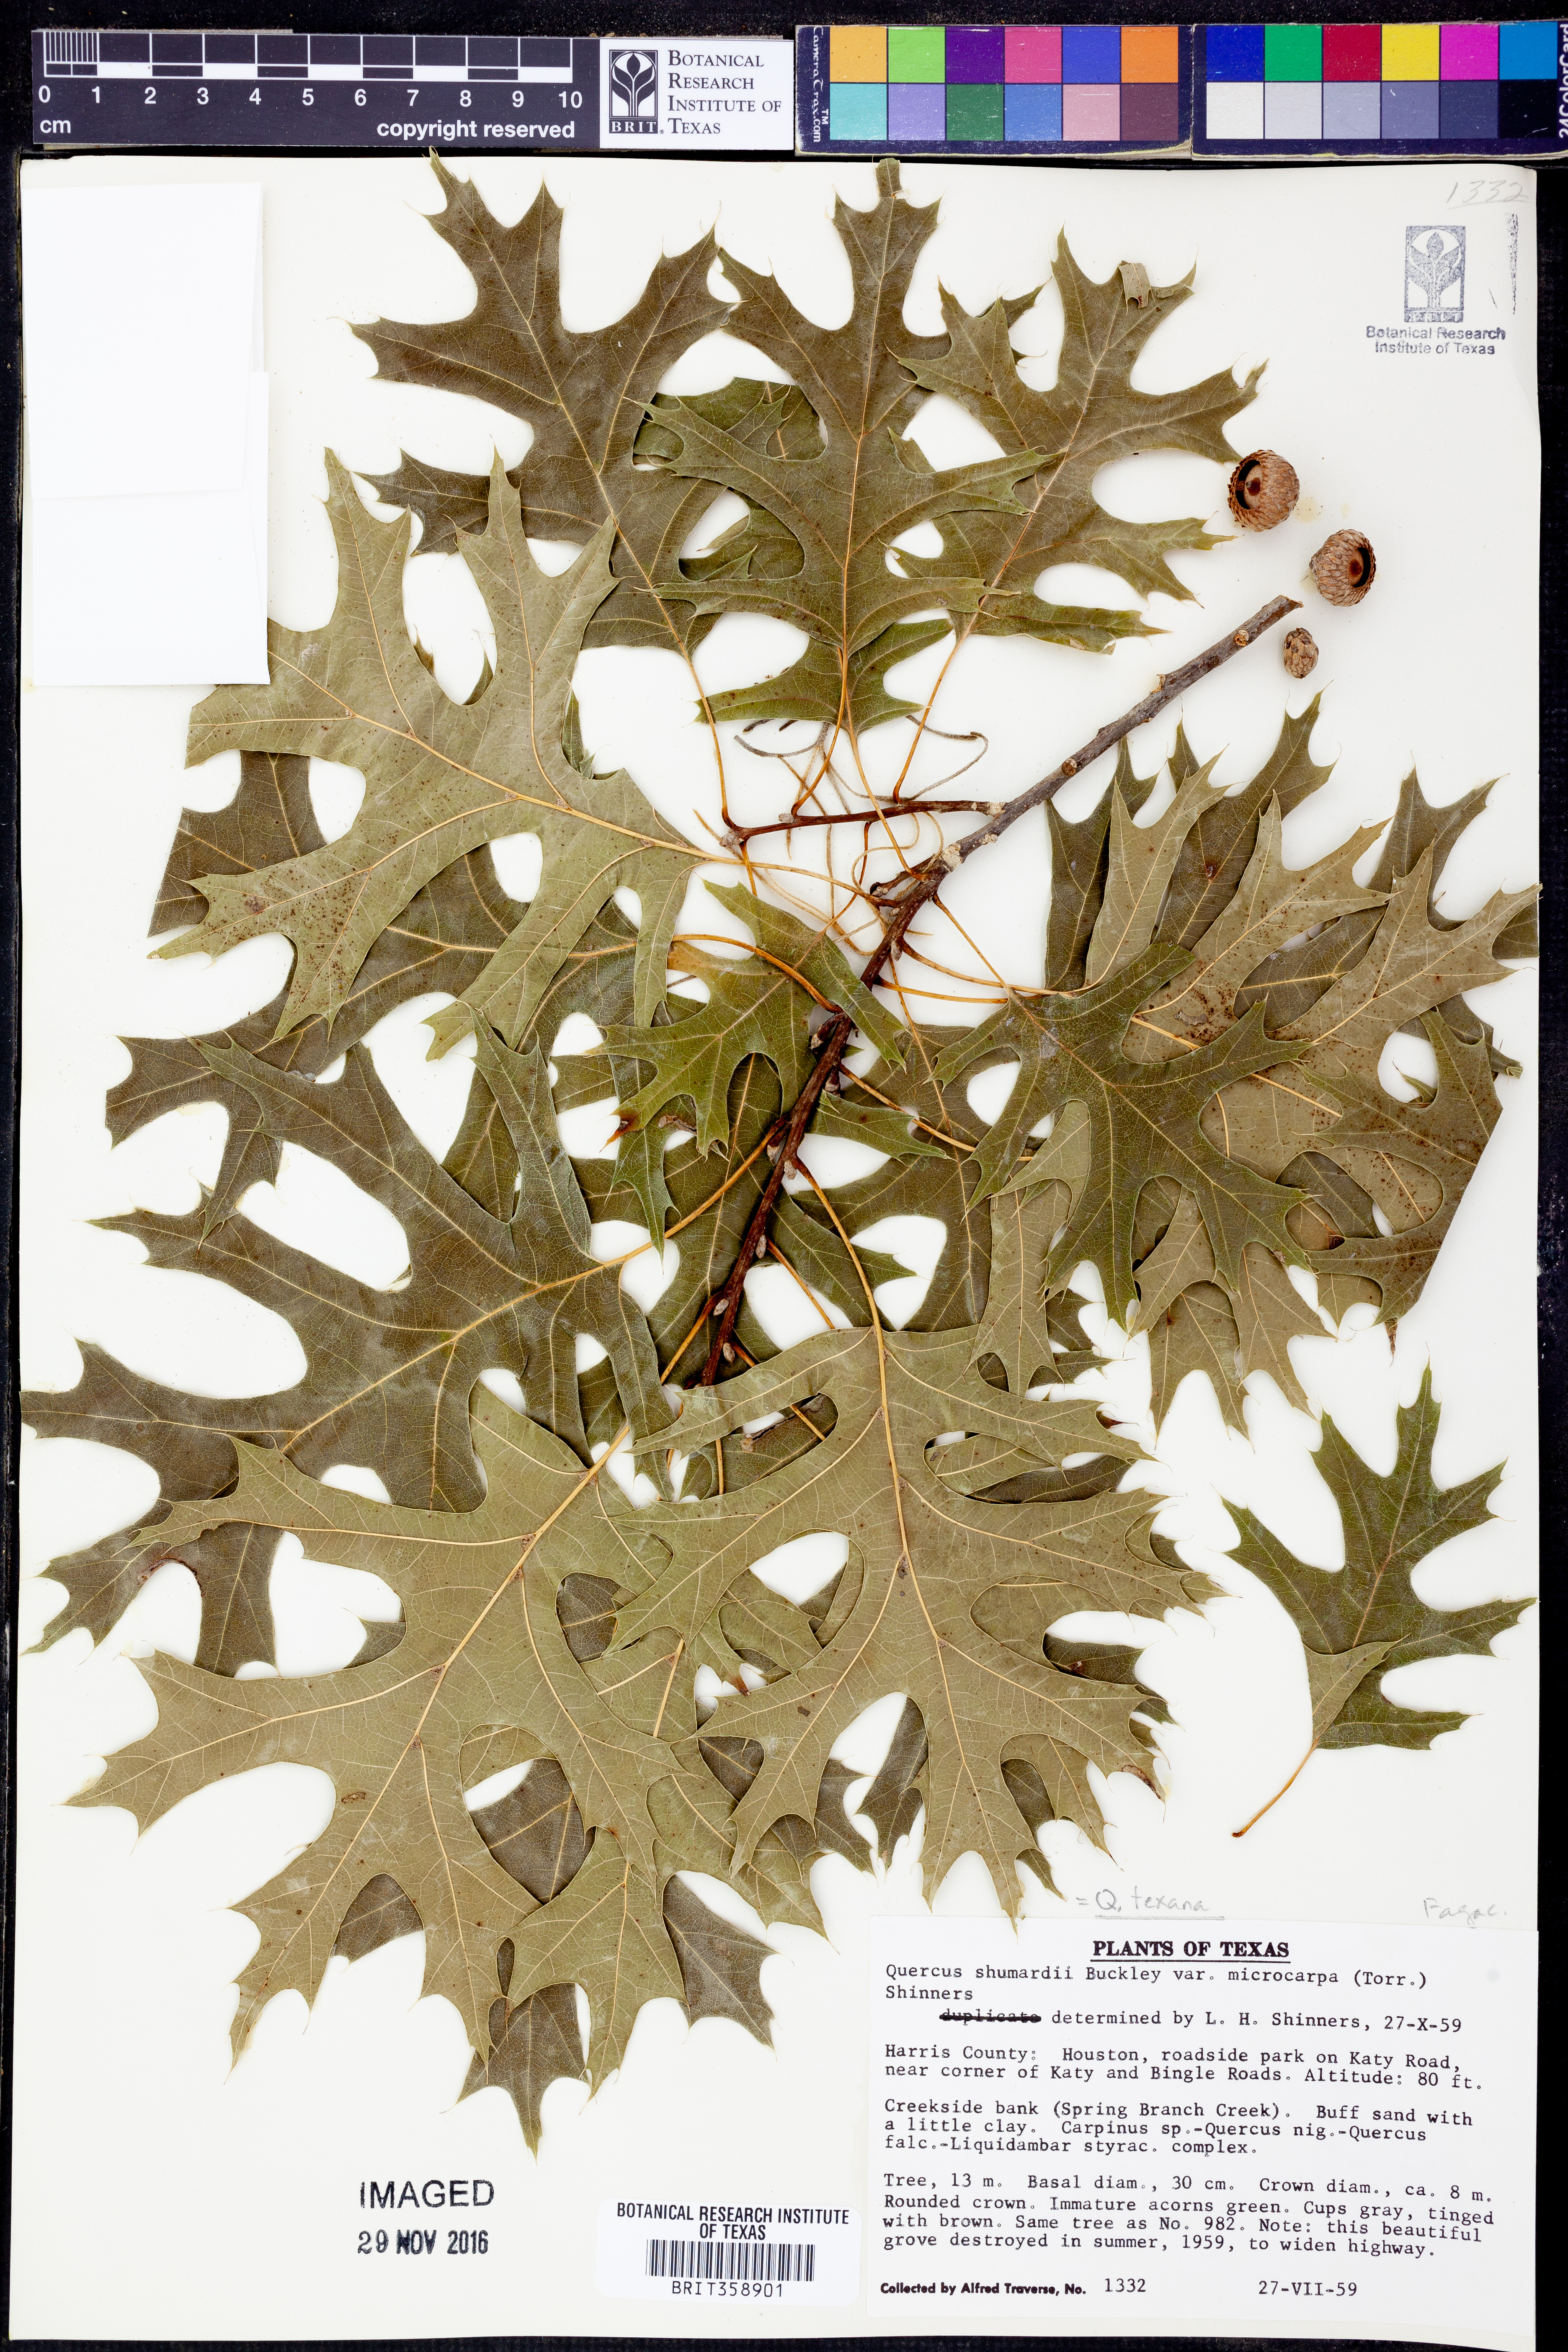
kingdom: Plantae
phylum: Tracheophyta
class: Magnoliopsida
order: Fagales
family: Fagaceae
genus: Quercus
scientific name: Quercus gravesii
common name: Chisos red oak
